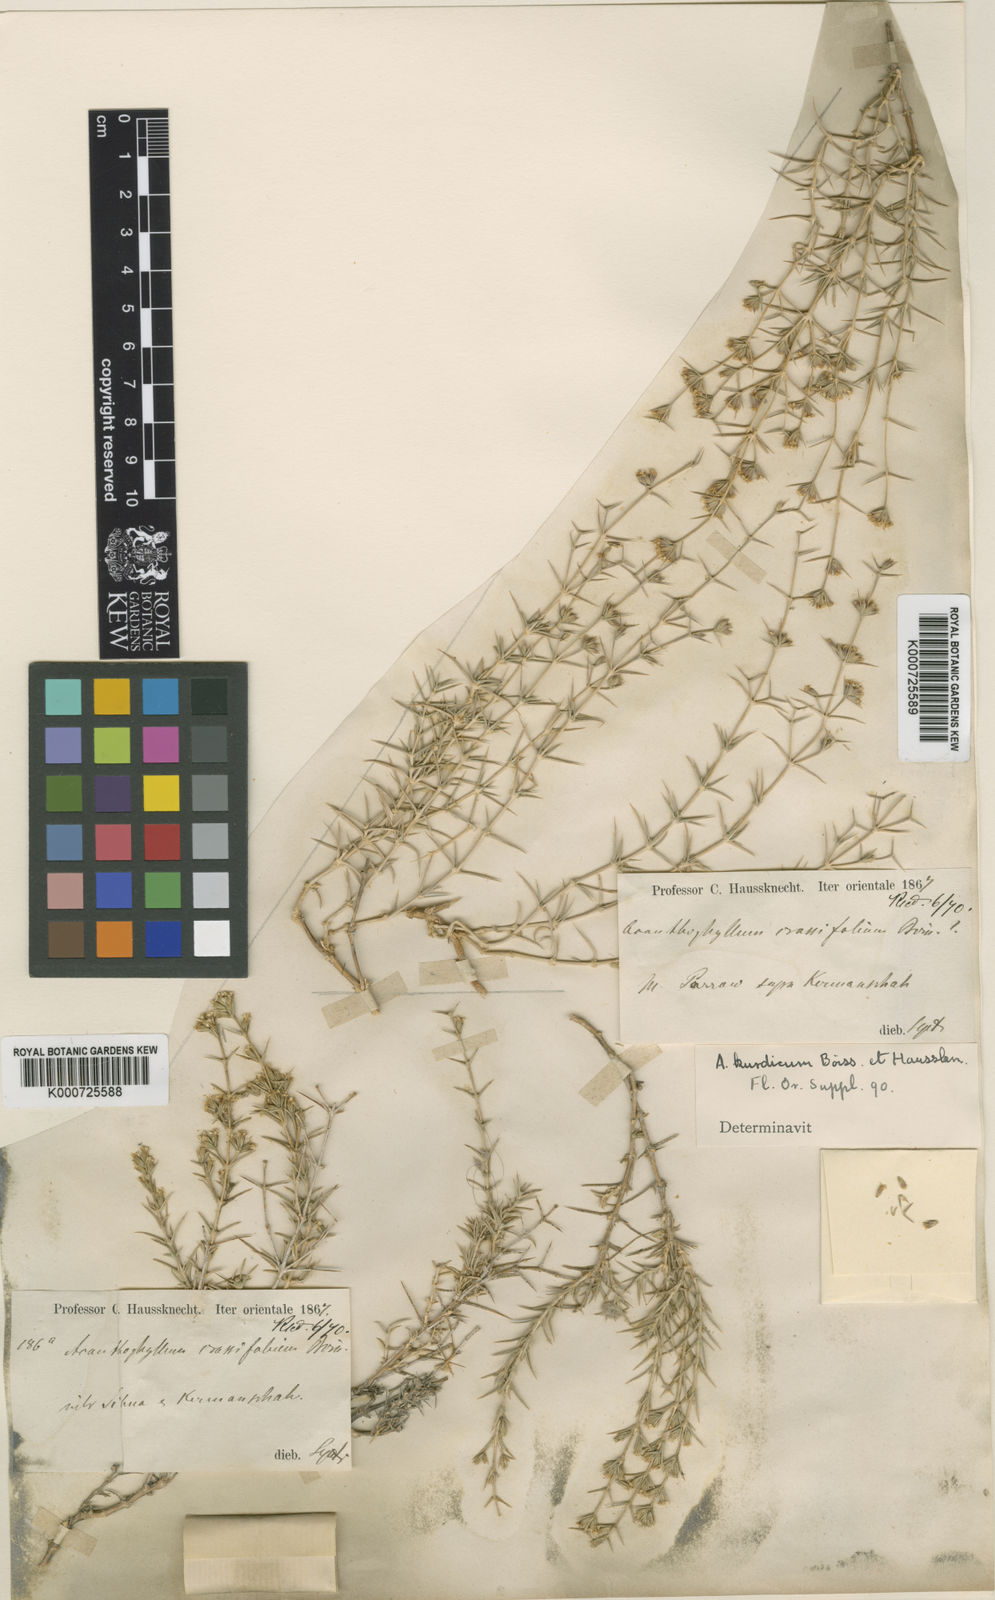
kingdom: Plantae
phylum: Tracheophyta
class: Magnoliopsida
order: Caryophyllales
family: Caryophyllaceae
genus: Acanthophyllum
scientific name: Acanthophyllum crassifolium
